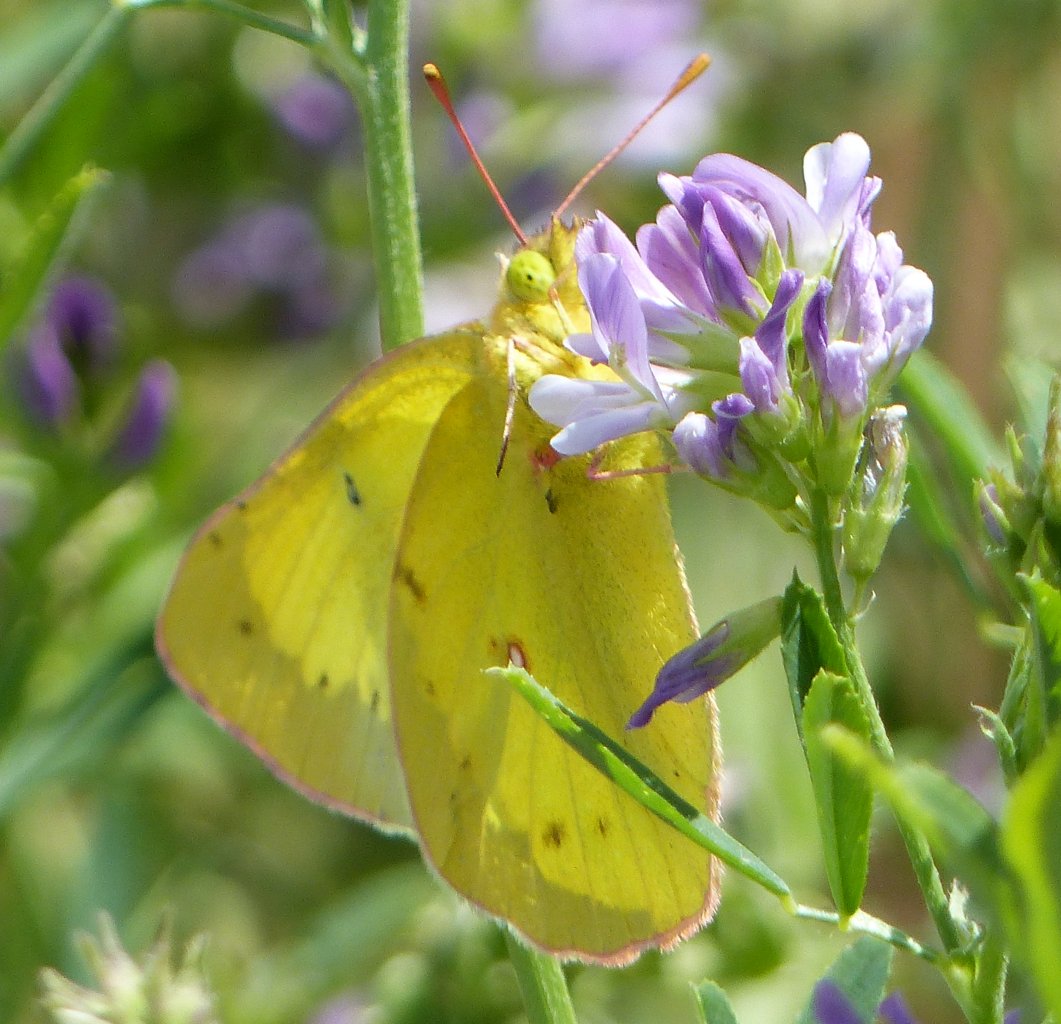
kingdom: Animalia
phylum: Arthropoda
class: Insecta
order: Lepidoptera
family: Pieridae
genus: Colias
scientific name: Colias philodice
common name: Clouded Sulphur
